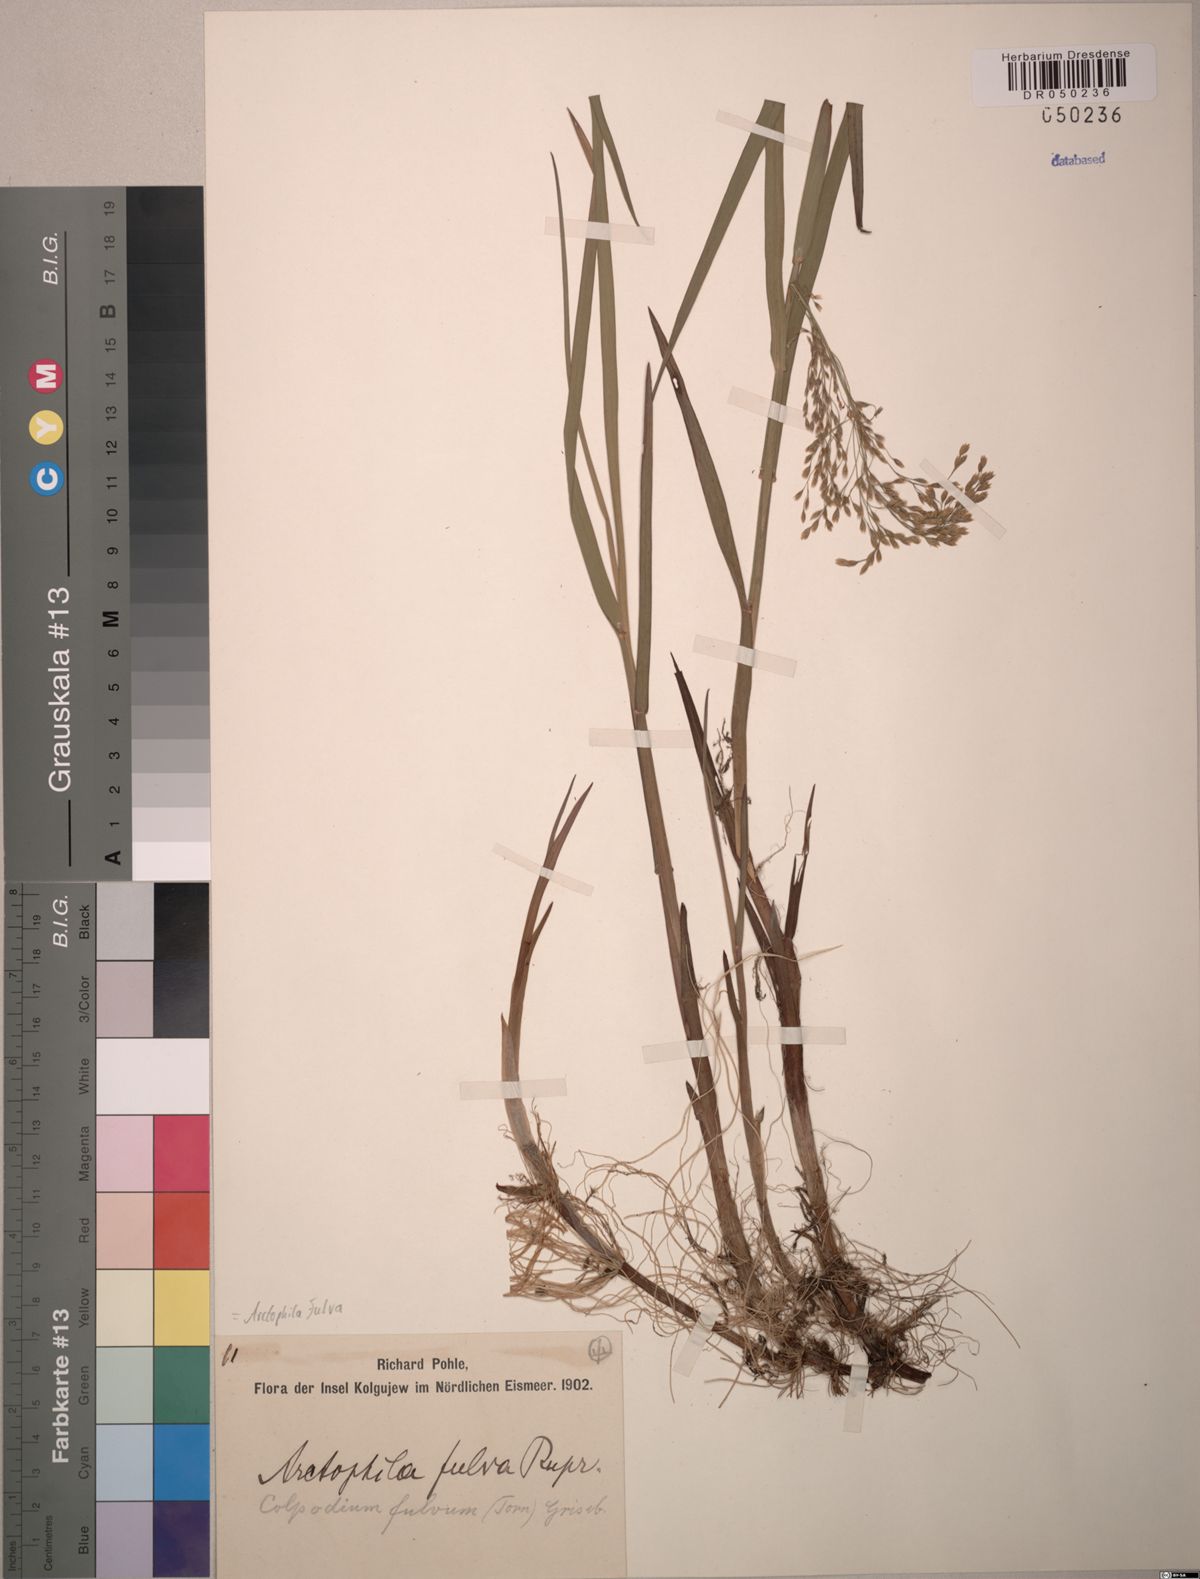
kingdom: Plantae
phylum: Tracheophyta
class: Liliopsida
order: Poales
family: Poaceae
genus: Dupontia
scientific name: Dupontia fulva
